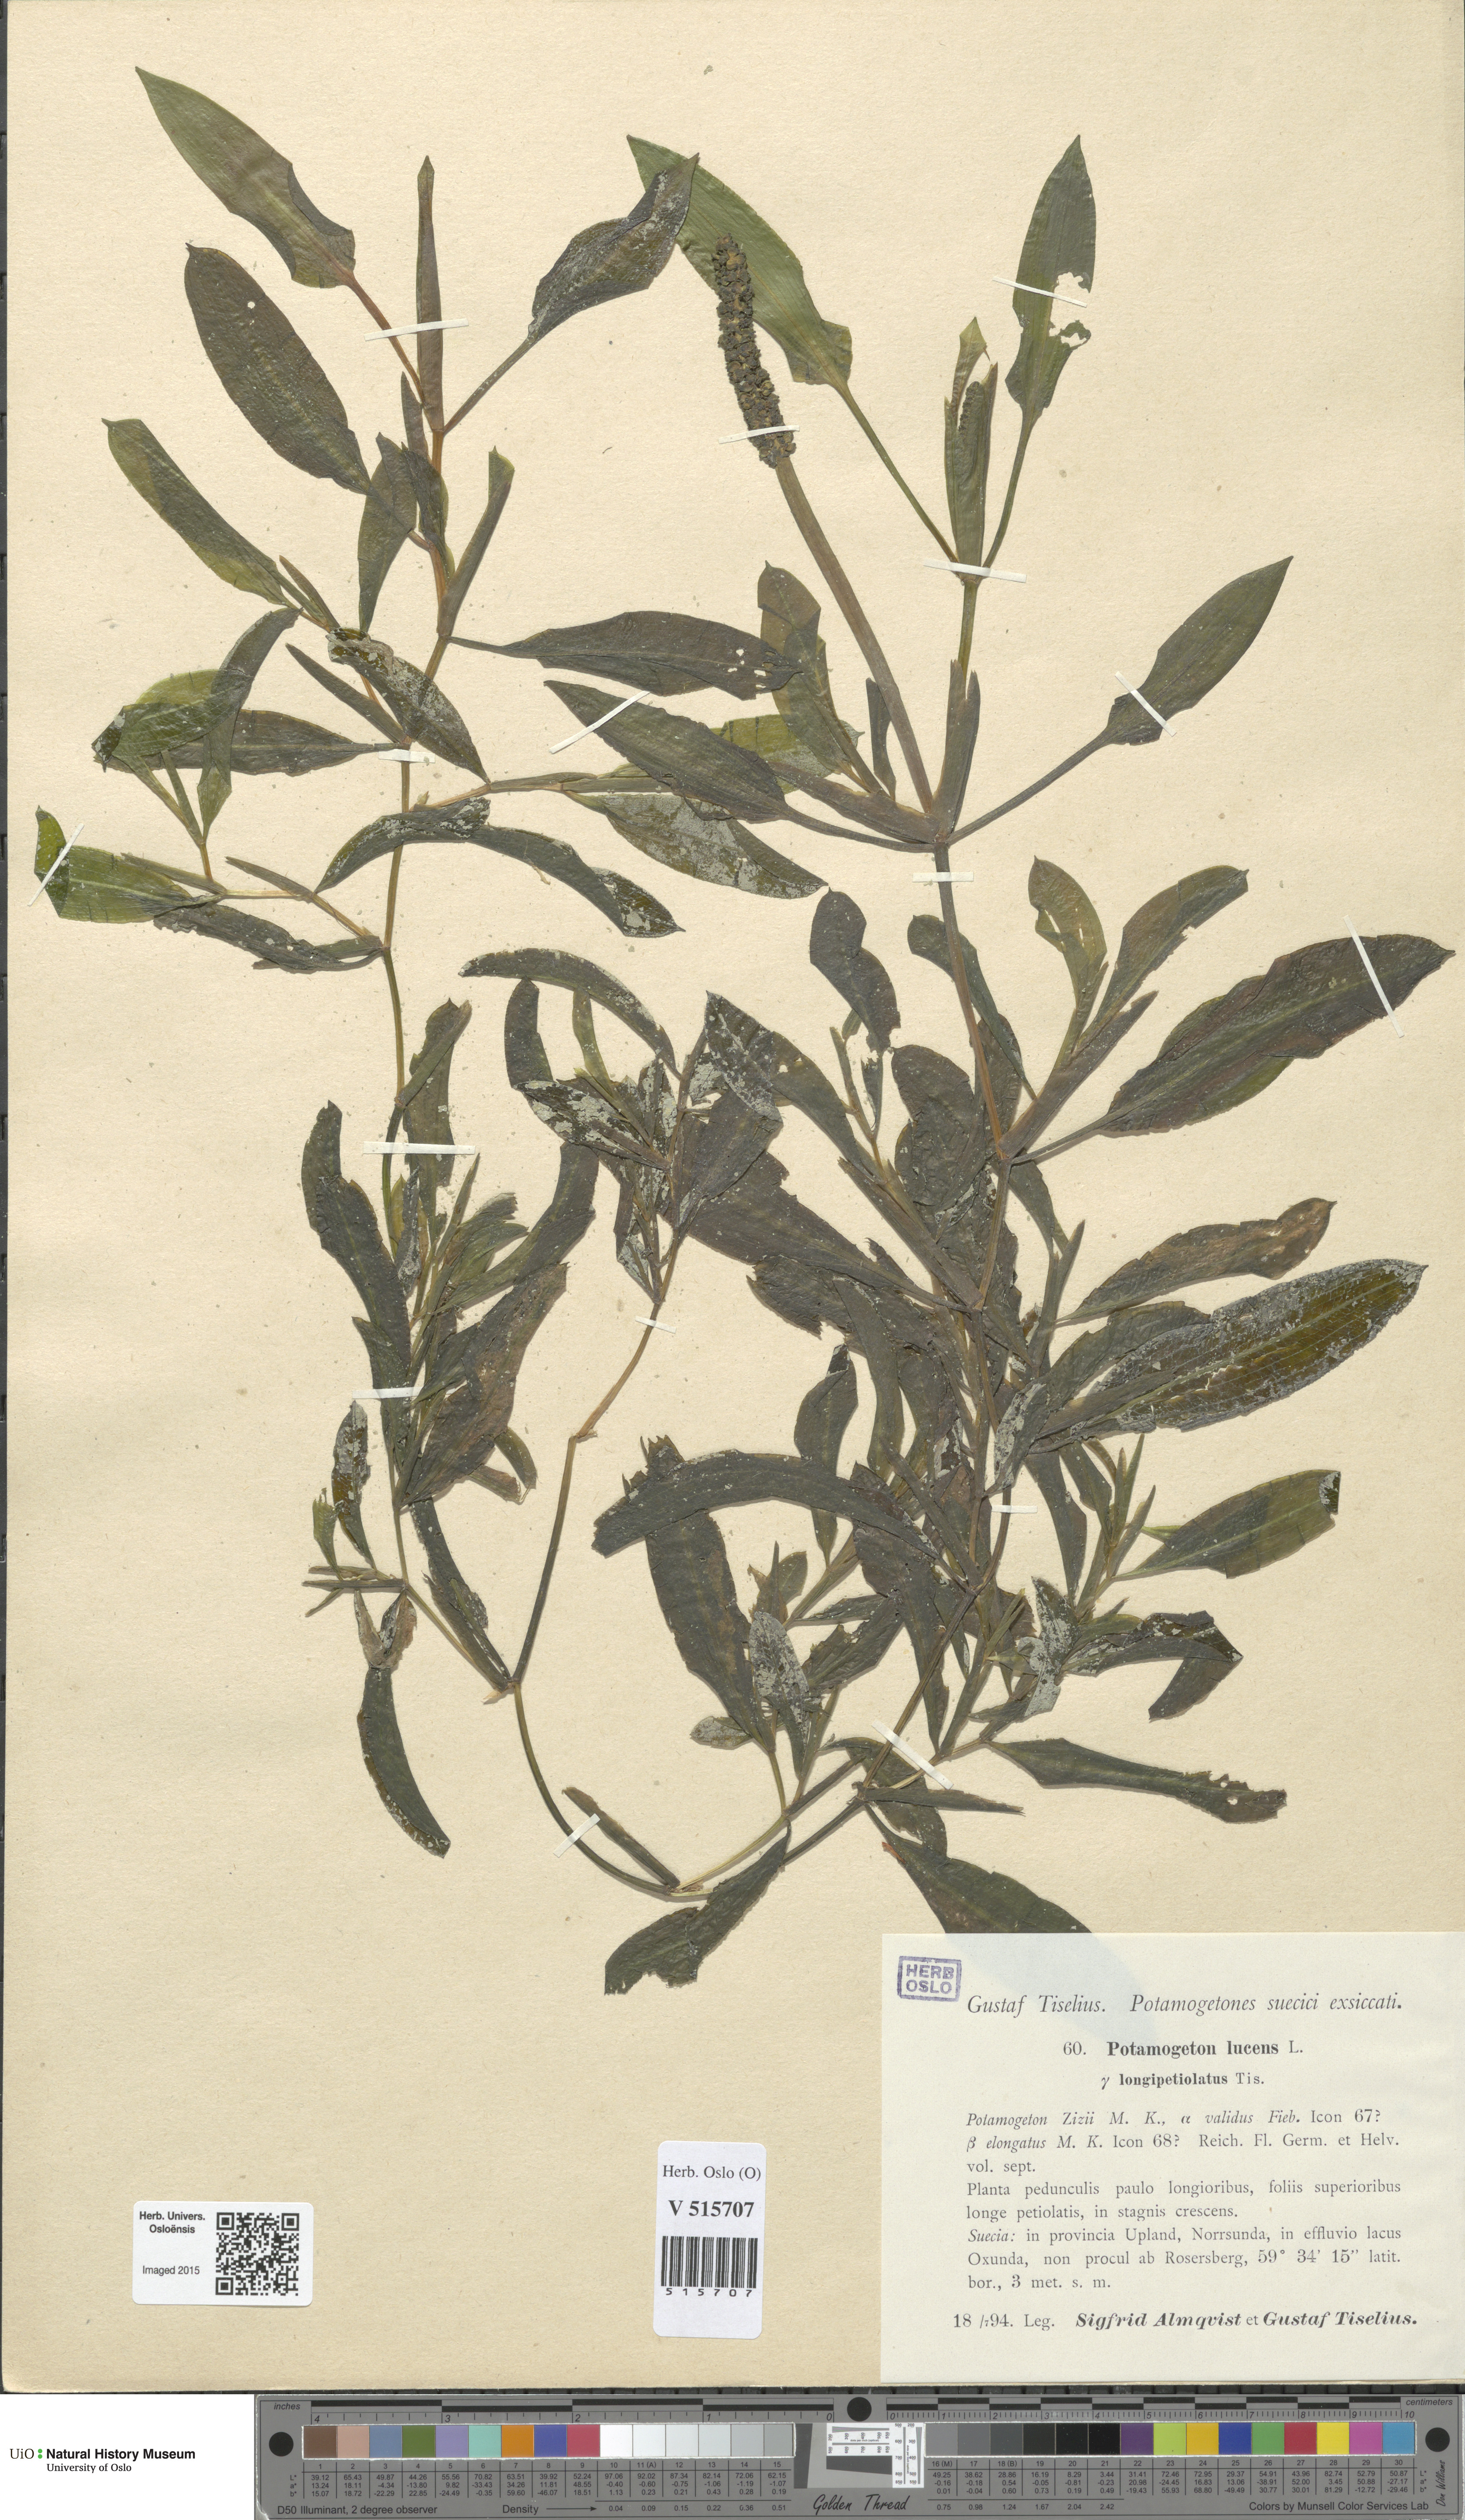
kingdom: Plantae
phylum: Tracheophyta
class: Liliopsida
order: Alismatales
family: Potamogetonaceae
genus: Potamogeton
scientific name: Potamogeton lucens
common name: Shining pondweed
